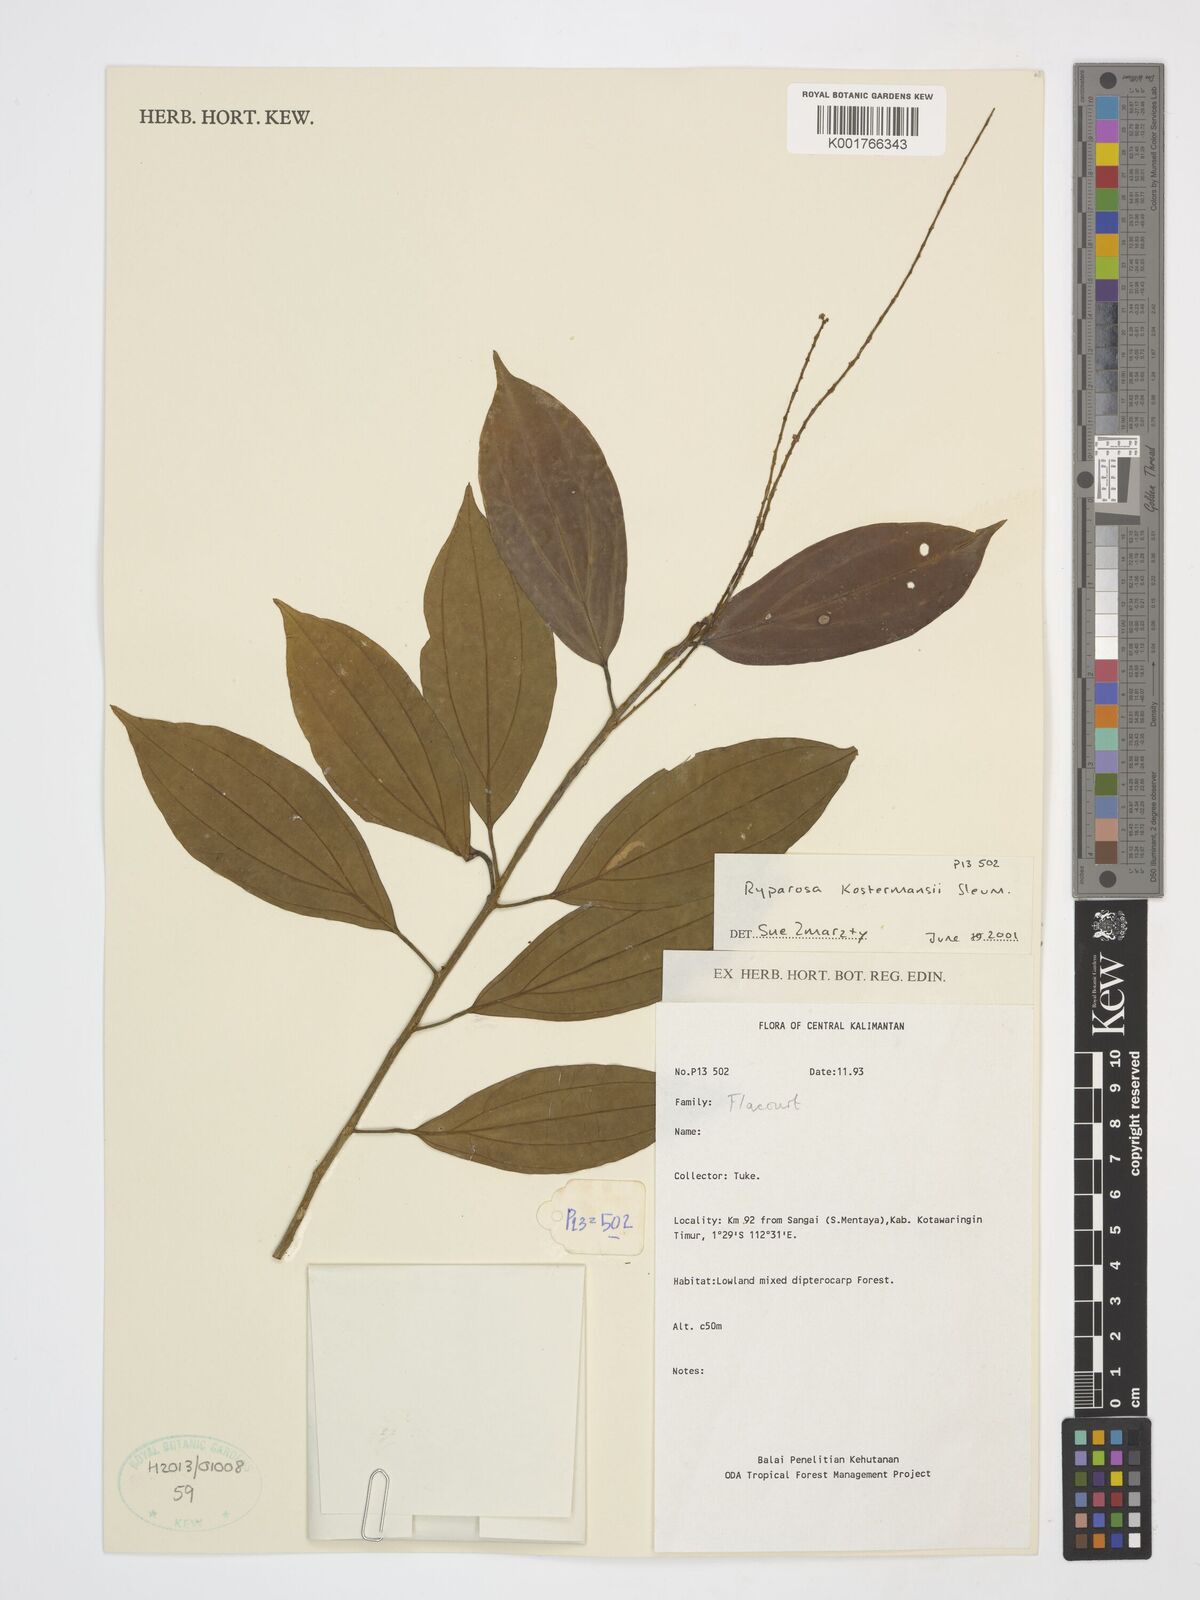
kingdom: Plantae
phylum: Tracheophyta
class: Magnoliopsida
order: Malpighiales
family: Achariaceae
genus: Ryparosa
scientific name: Ryparosa kostermansii
